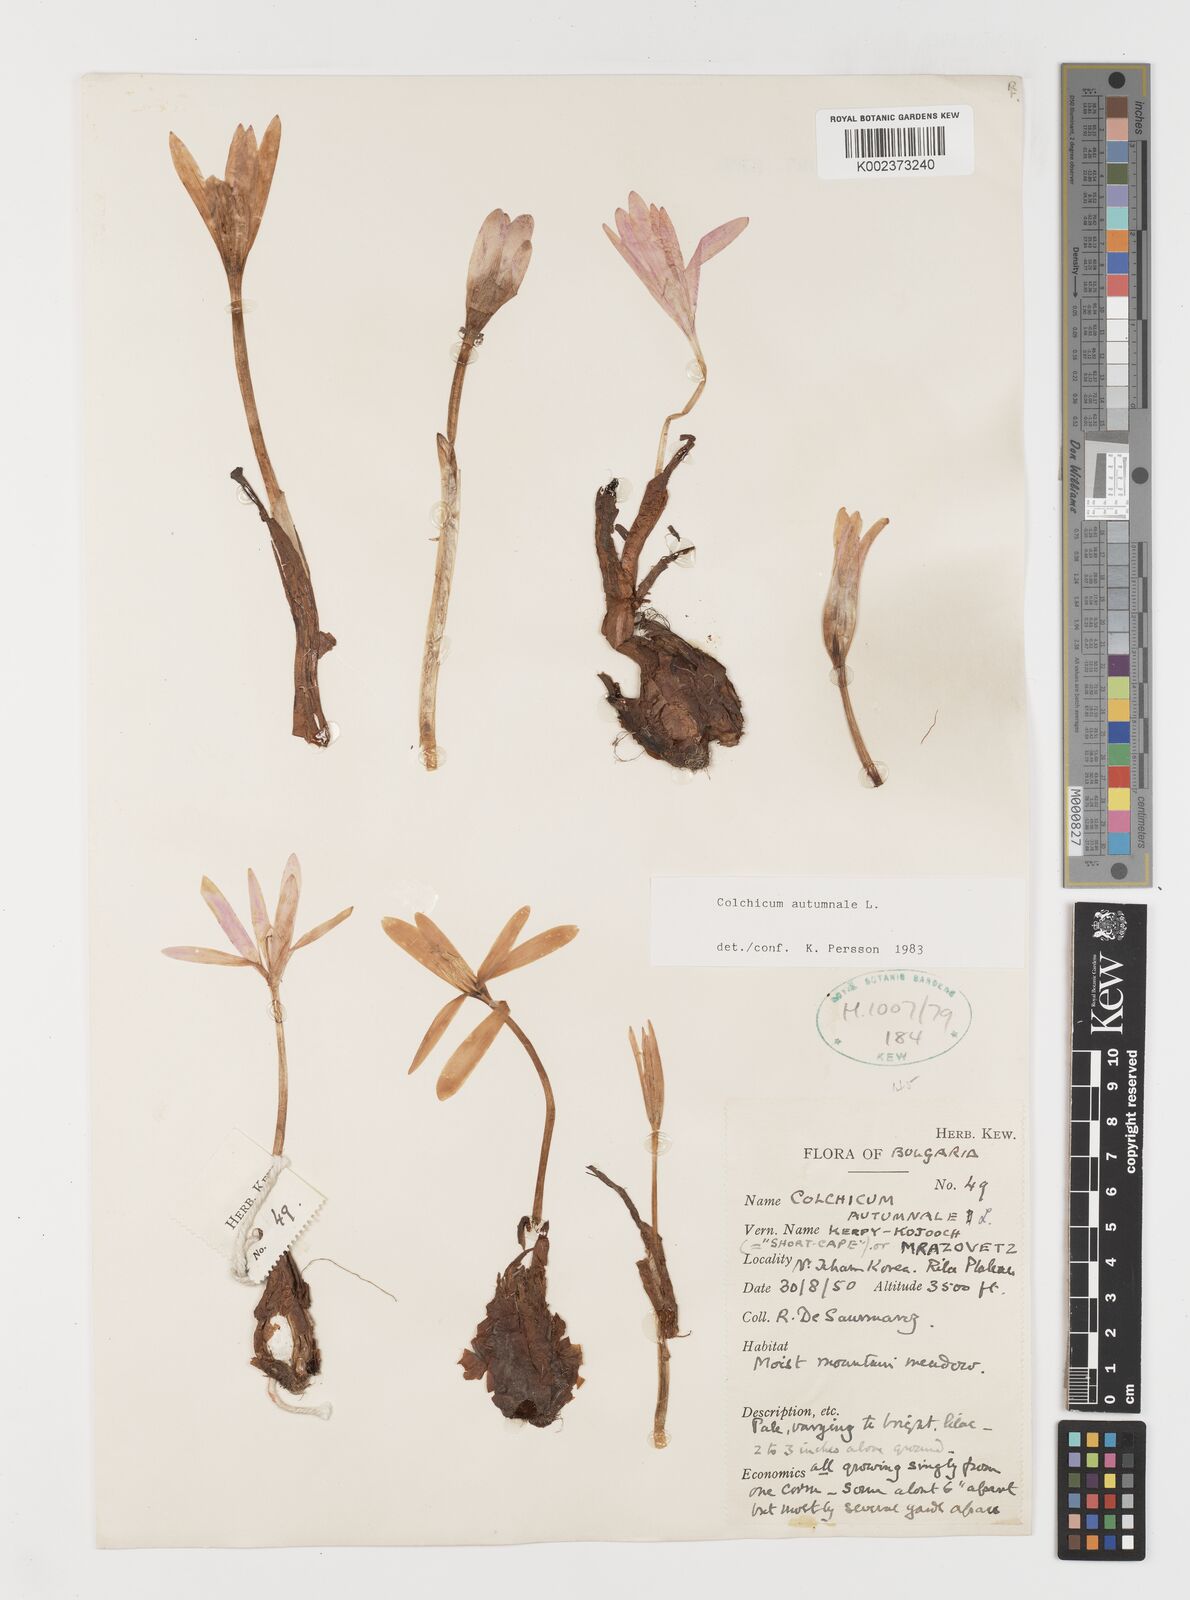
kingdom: Plantae
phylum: Tracheophyta
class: Liliopsida
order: Liliales
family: Colchicaceae
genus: Colchicum
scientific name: Colchicum autumnale
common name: Autumn crocus
